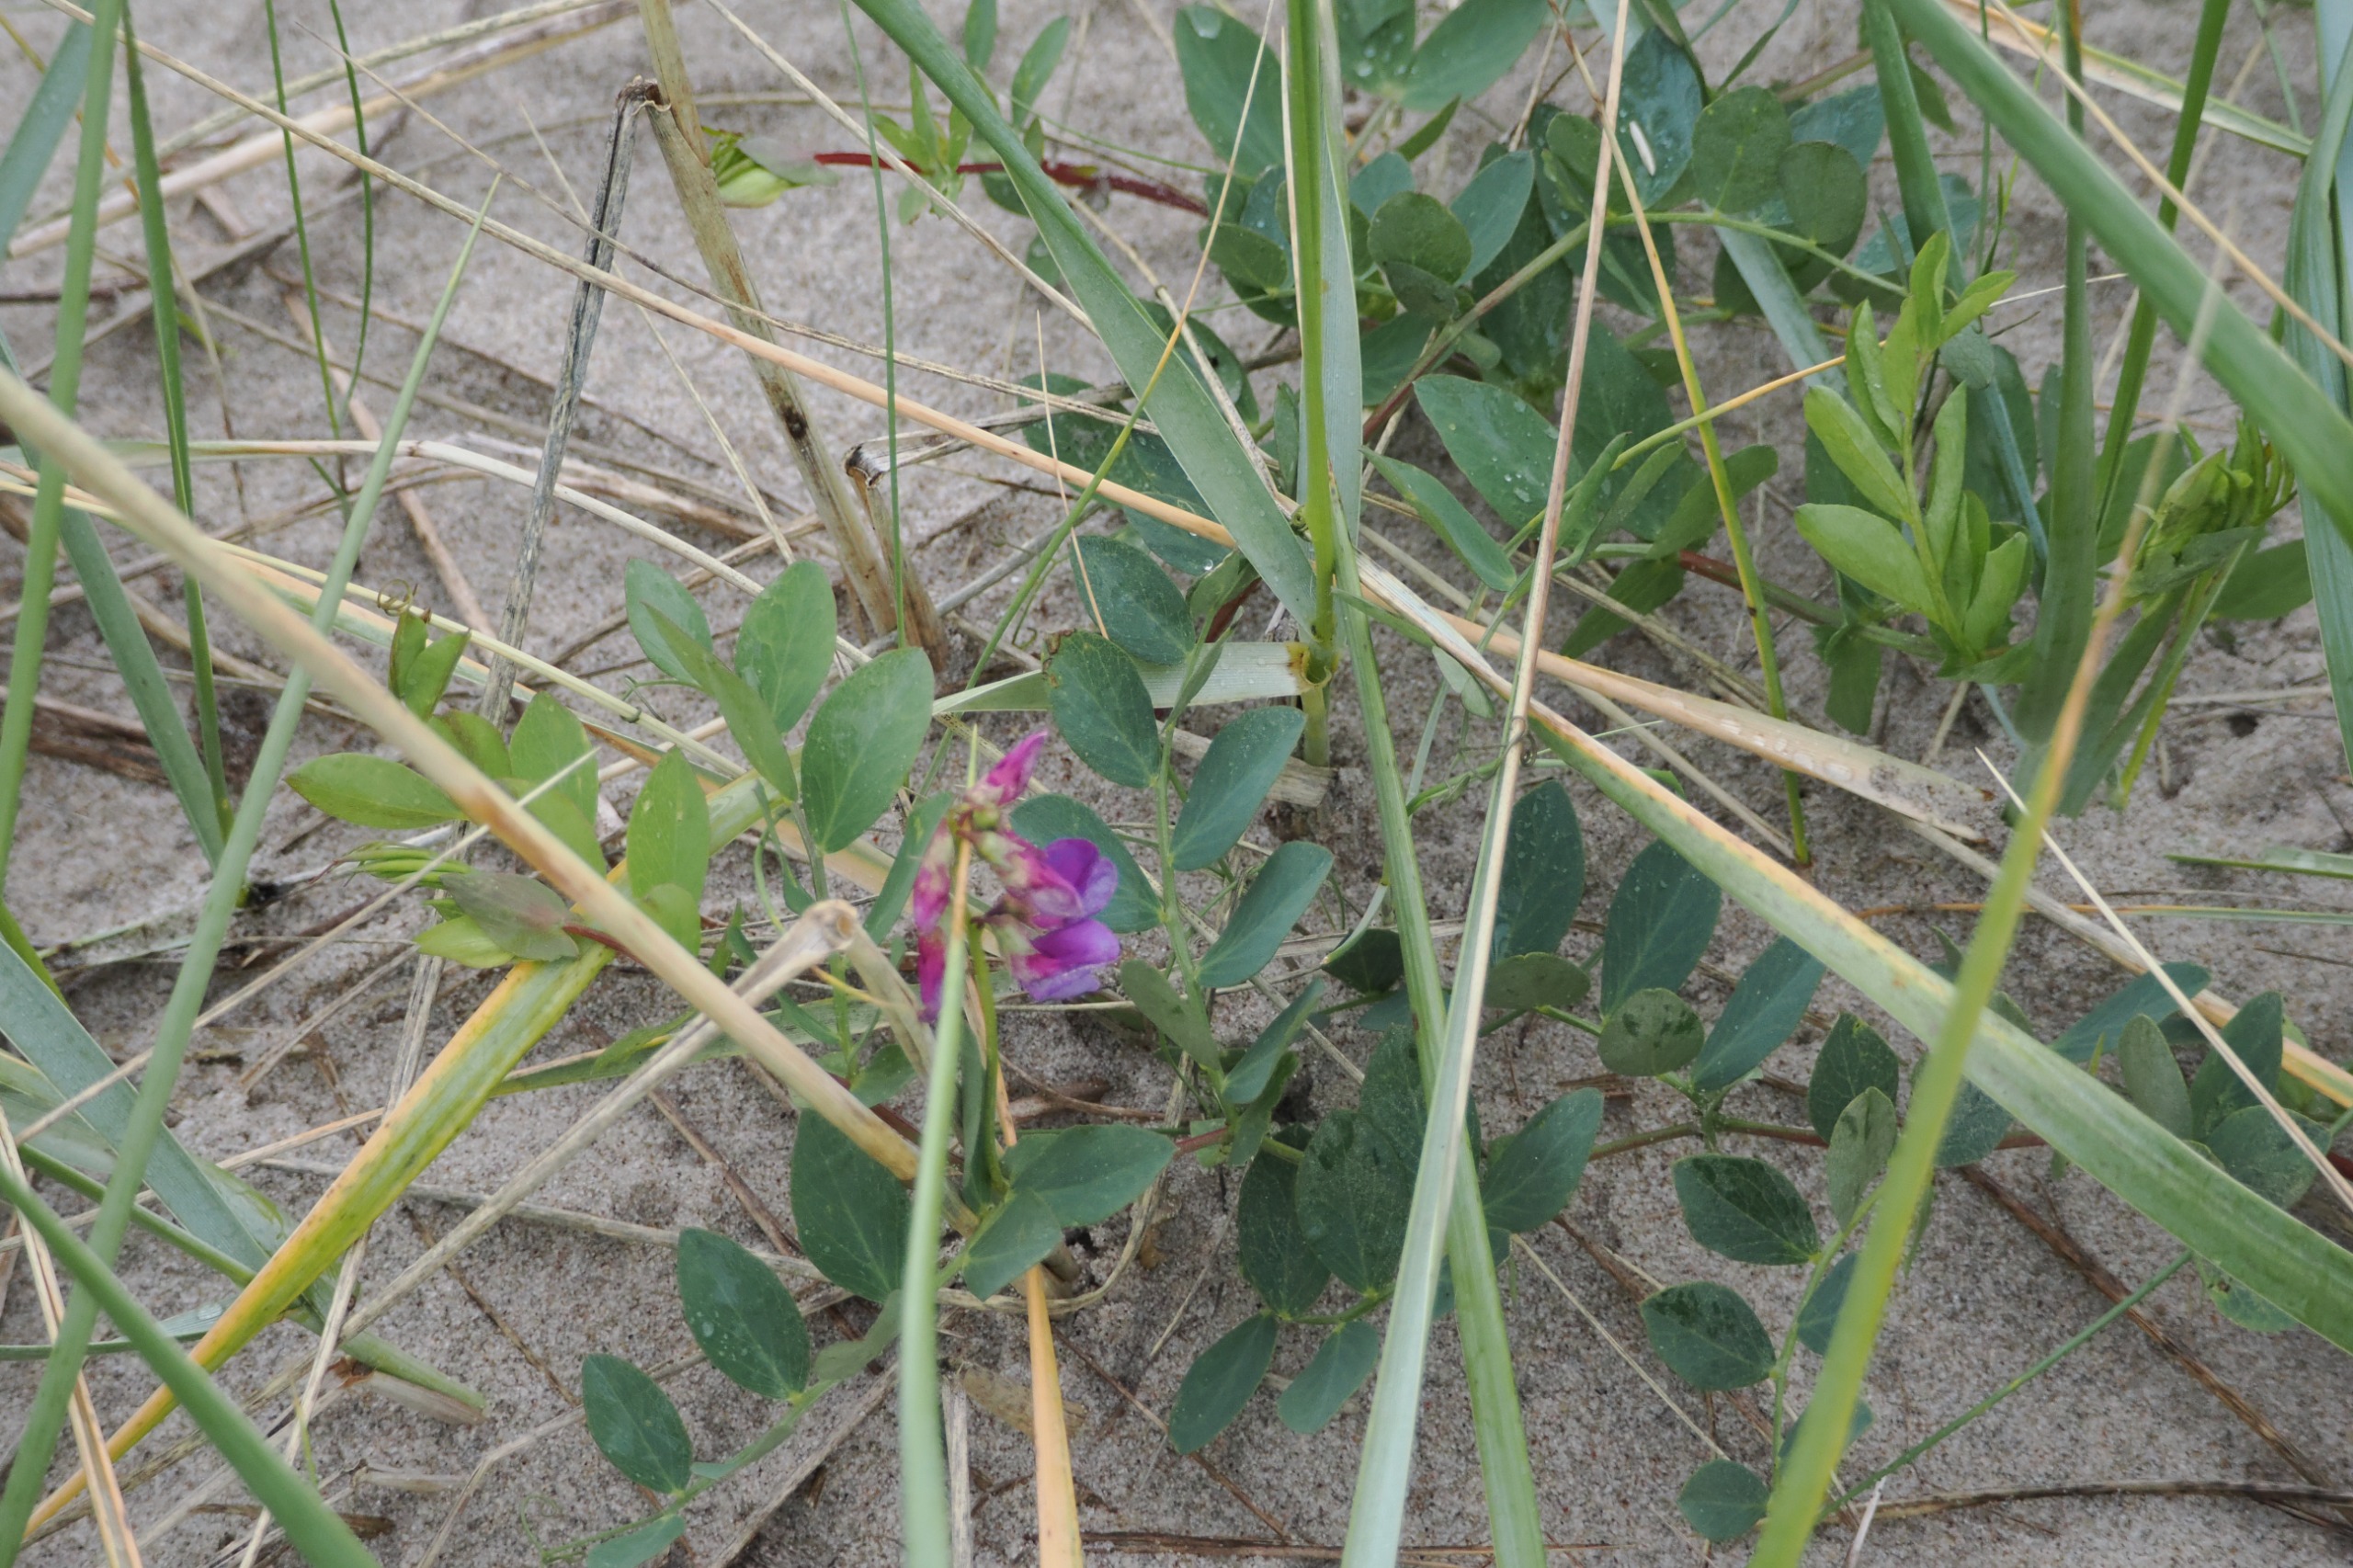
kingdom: Plantae
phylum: Tracheophyta
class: Magnoliopsida
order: Fabales
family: Fabaceae
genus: Lathyrus
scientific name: Lathyrus japonicus
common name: Strand-fladbælg
